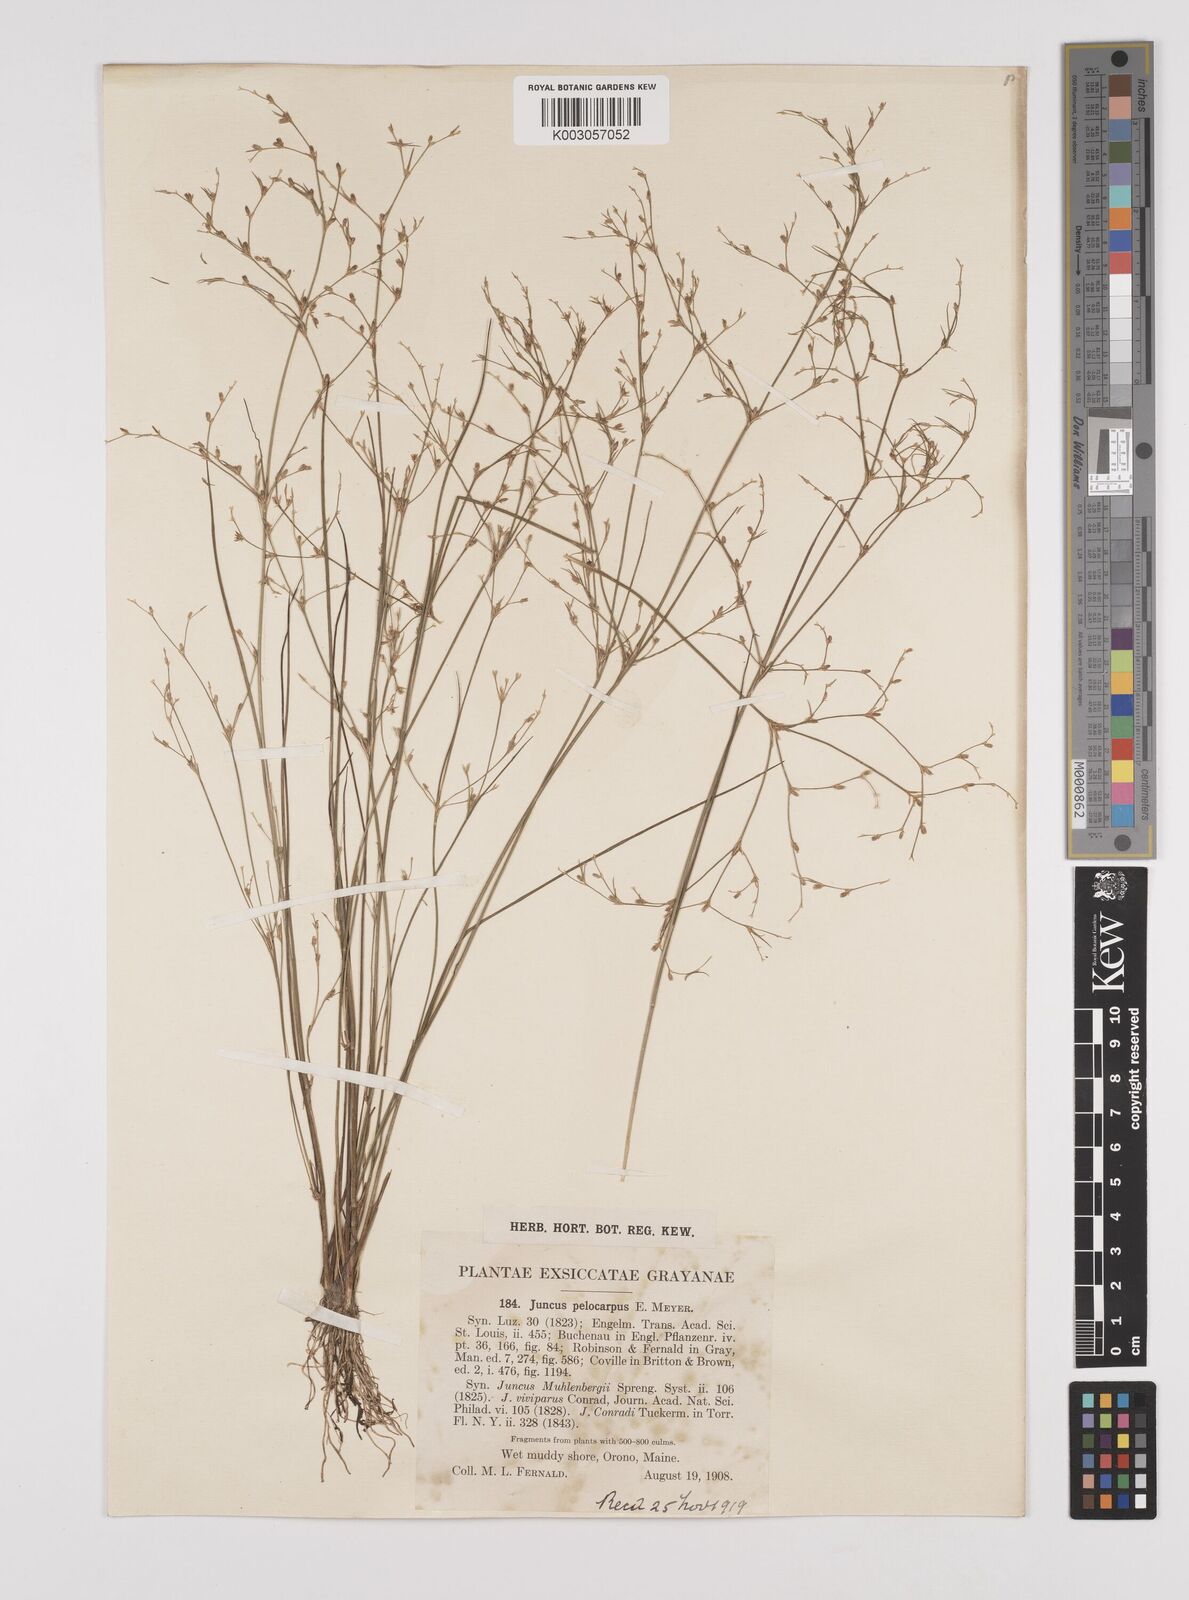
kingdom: Plantae
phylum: Tracheophyta
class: Liliopsida
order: Poales
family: Juncaceae
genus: Juncus
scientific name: Juncus pelocarpus
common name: Brown-fruited rush
